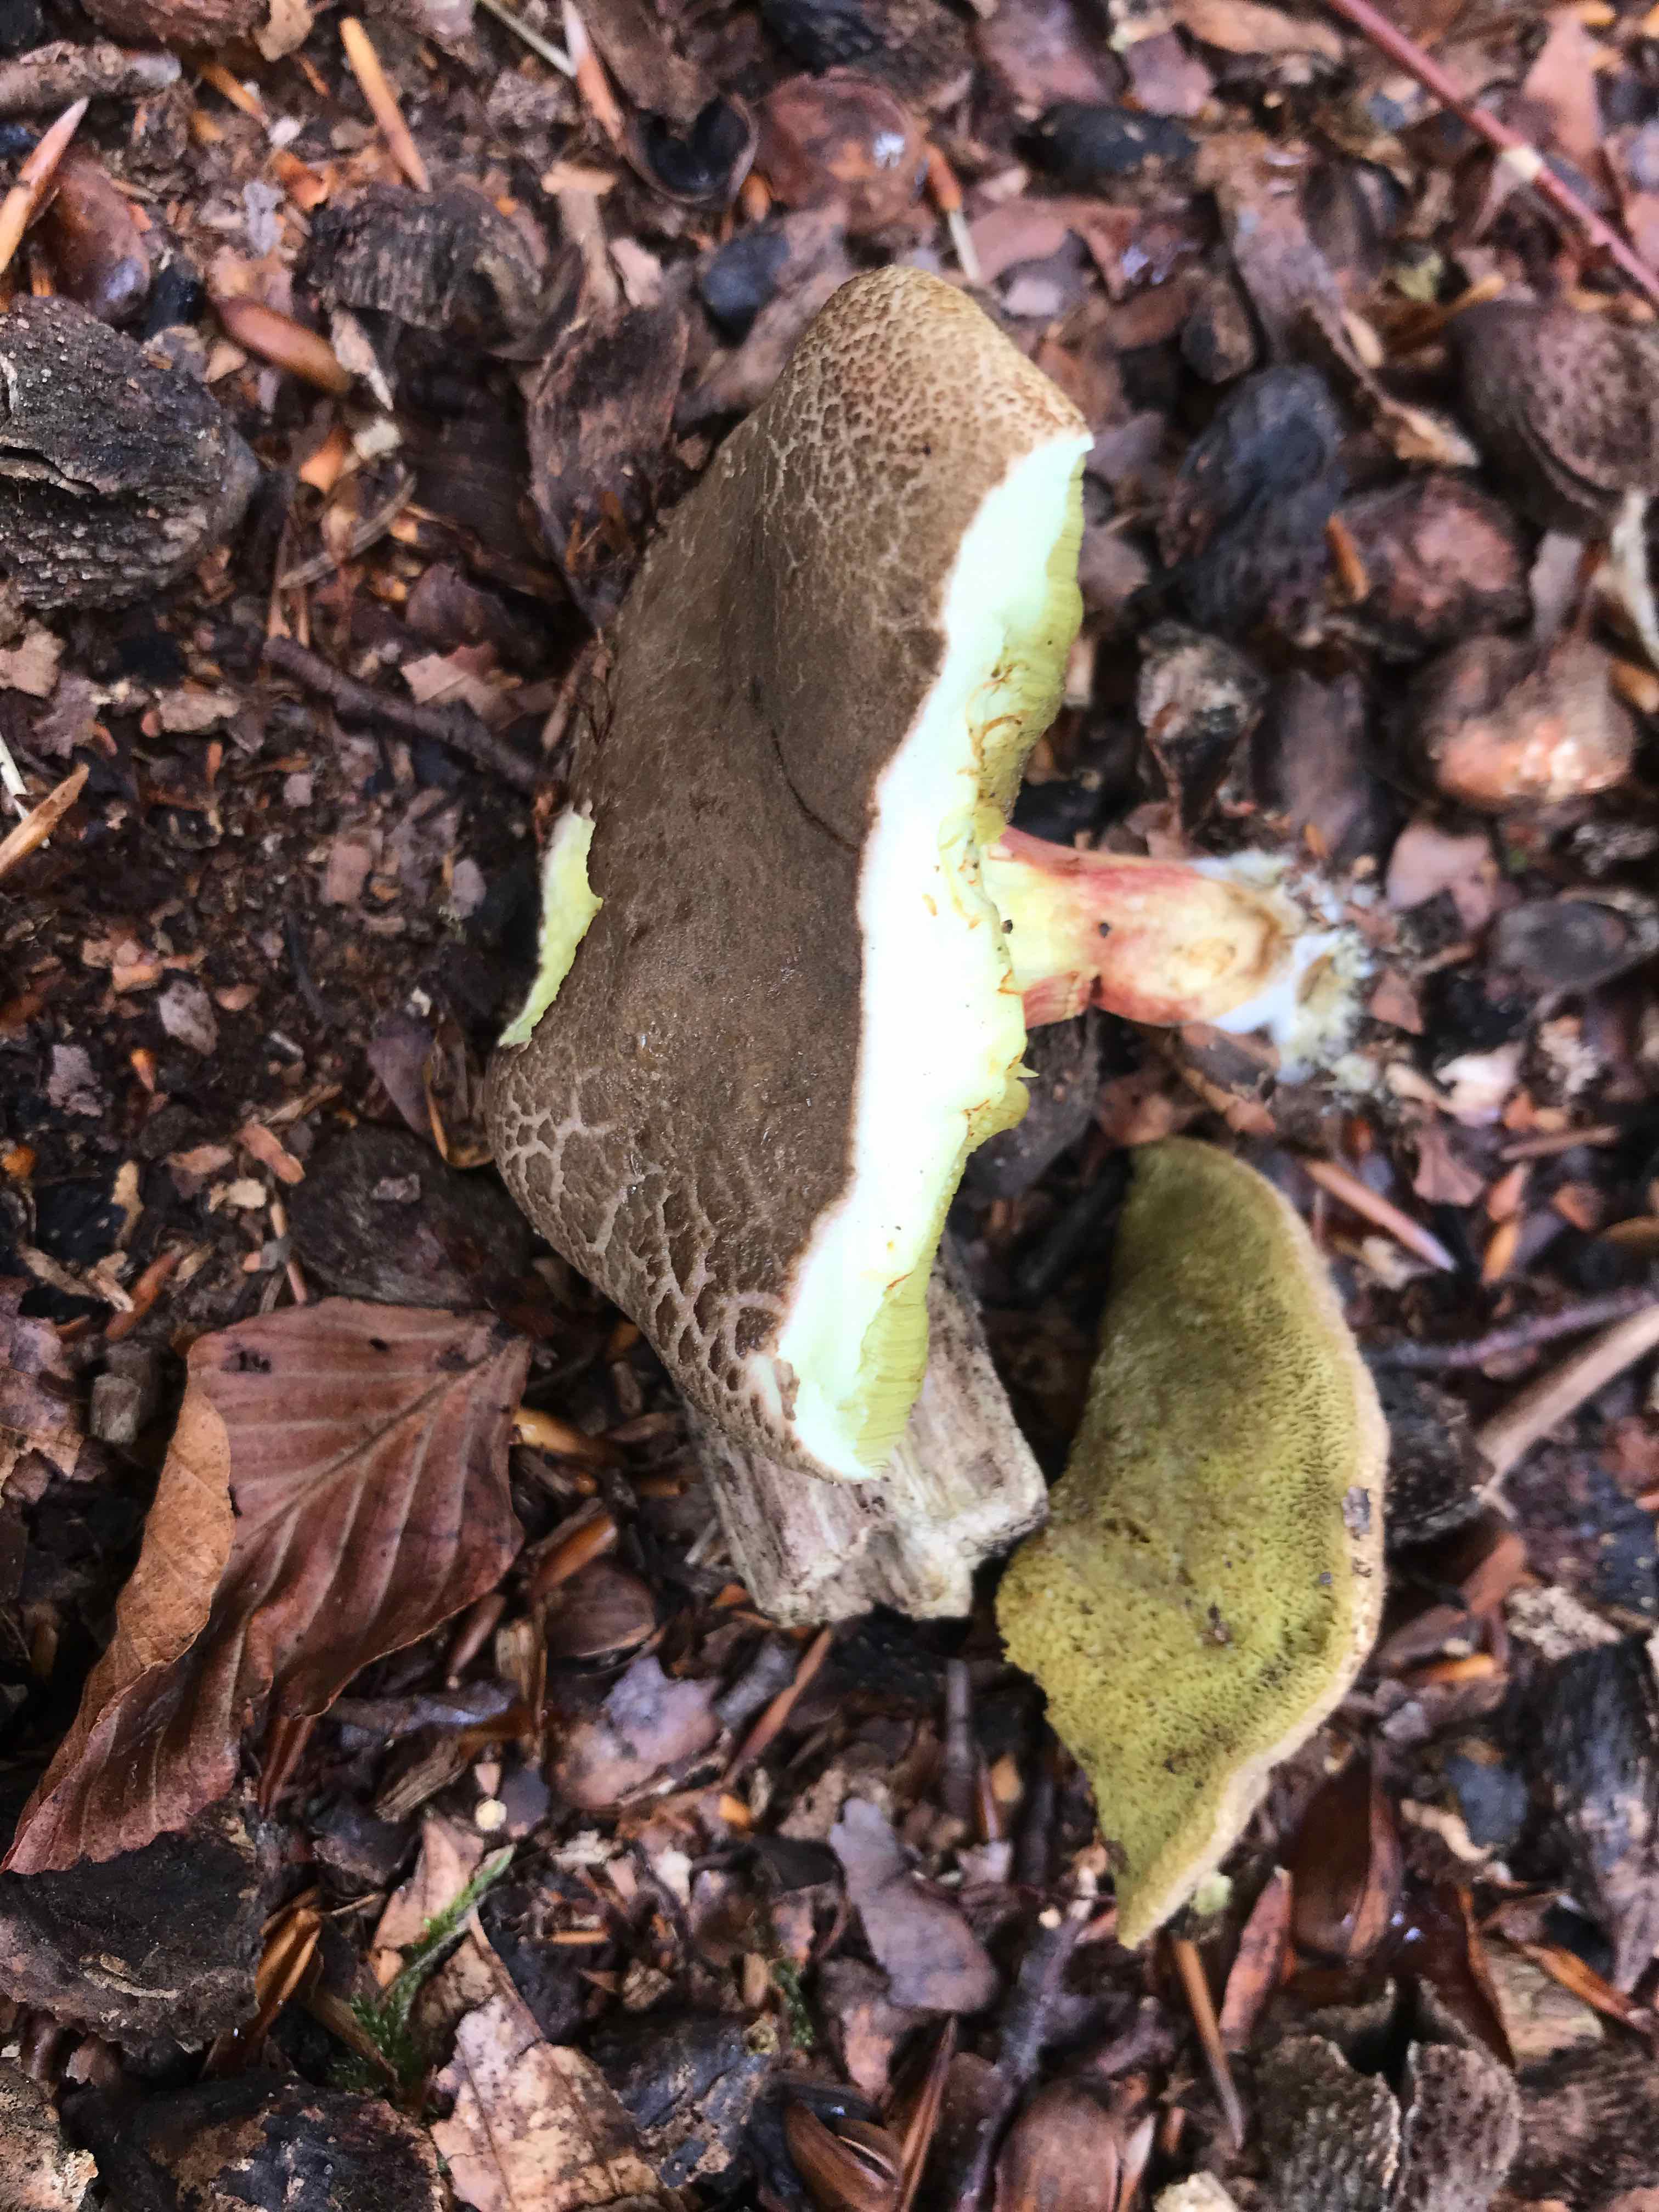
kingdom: Fungi
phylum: Basidiomycota
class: Agaricomycetes
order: Boletales
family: Boletaceae
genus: Xerocomellus
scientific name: Xerocomellus chrysenteron
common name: rødsprukken rørhat
